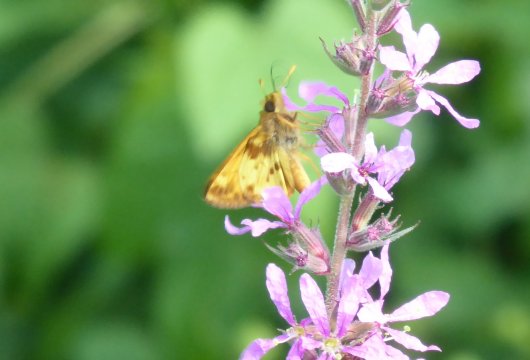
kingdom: Animalia
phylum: Arthropoda
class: Insecta
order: Lepidoptera
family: Hesperiidae
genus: Lon
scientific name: Lon zabulon
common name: Zabulon Skipper
